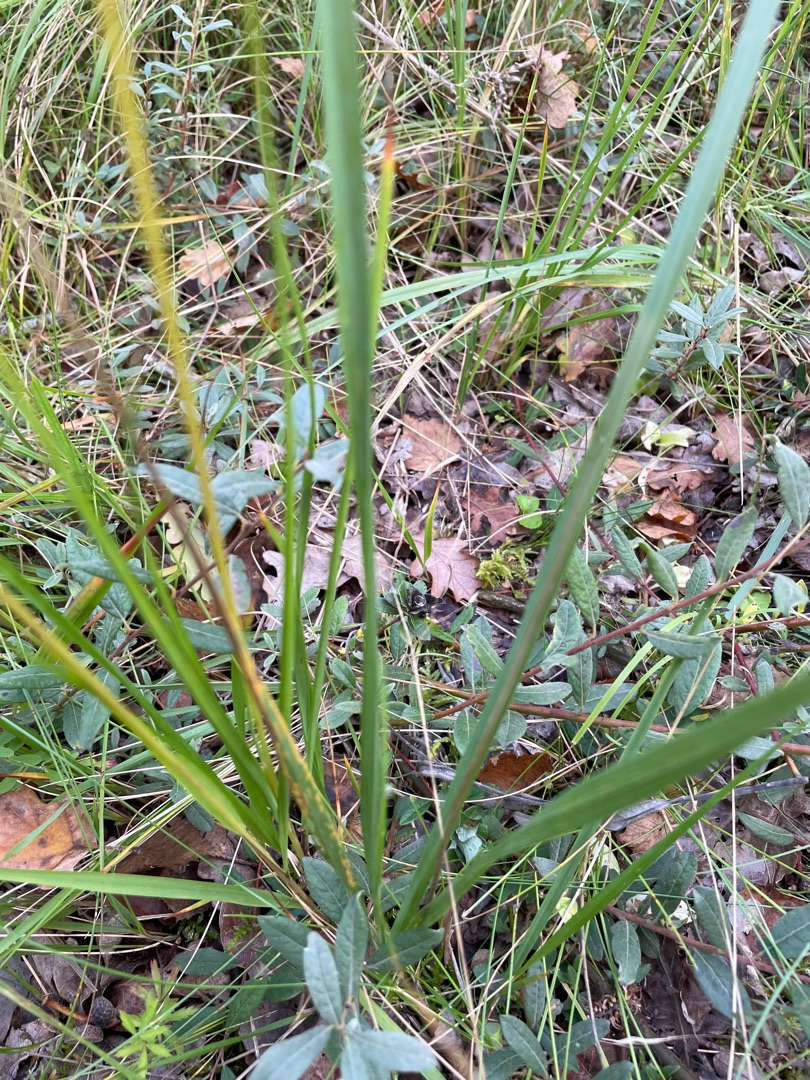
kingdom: Plantae
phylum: Tracheophyta
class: Liliopsida
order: Poales
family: Poaceae
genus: Molinia
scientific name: Molinia caerulea
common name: Blåtop
